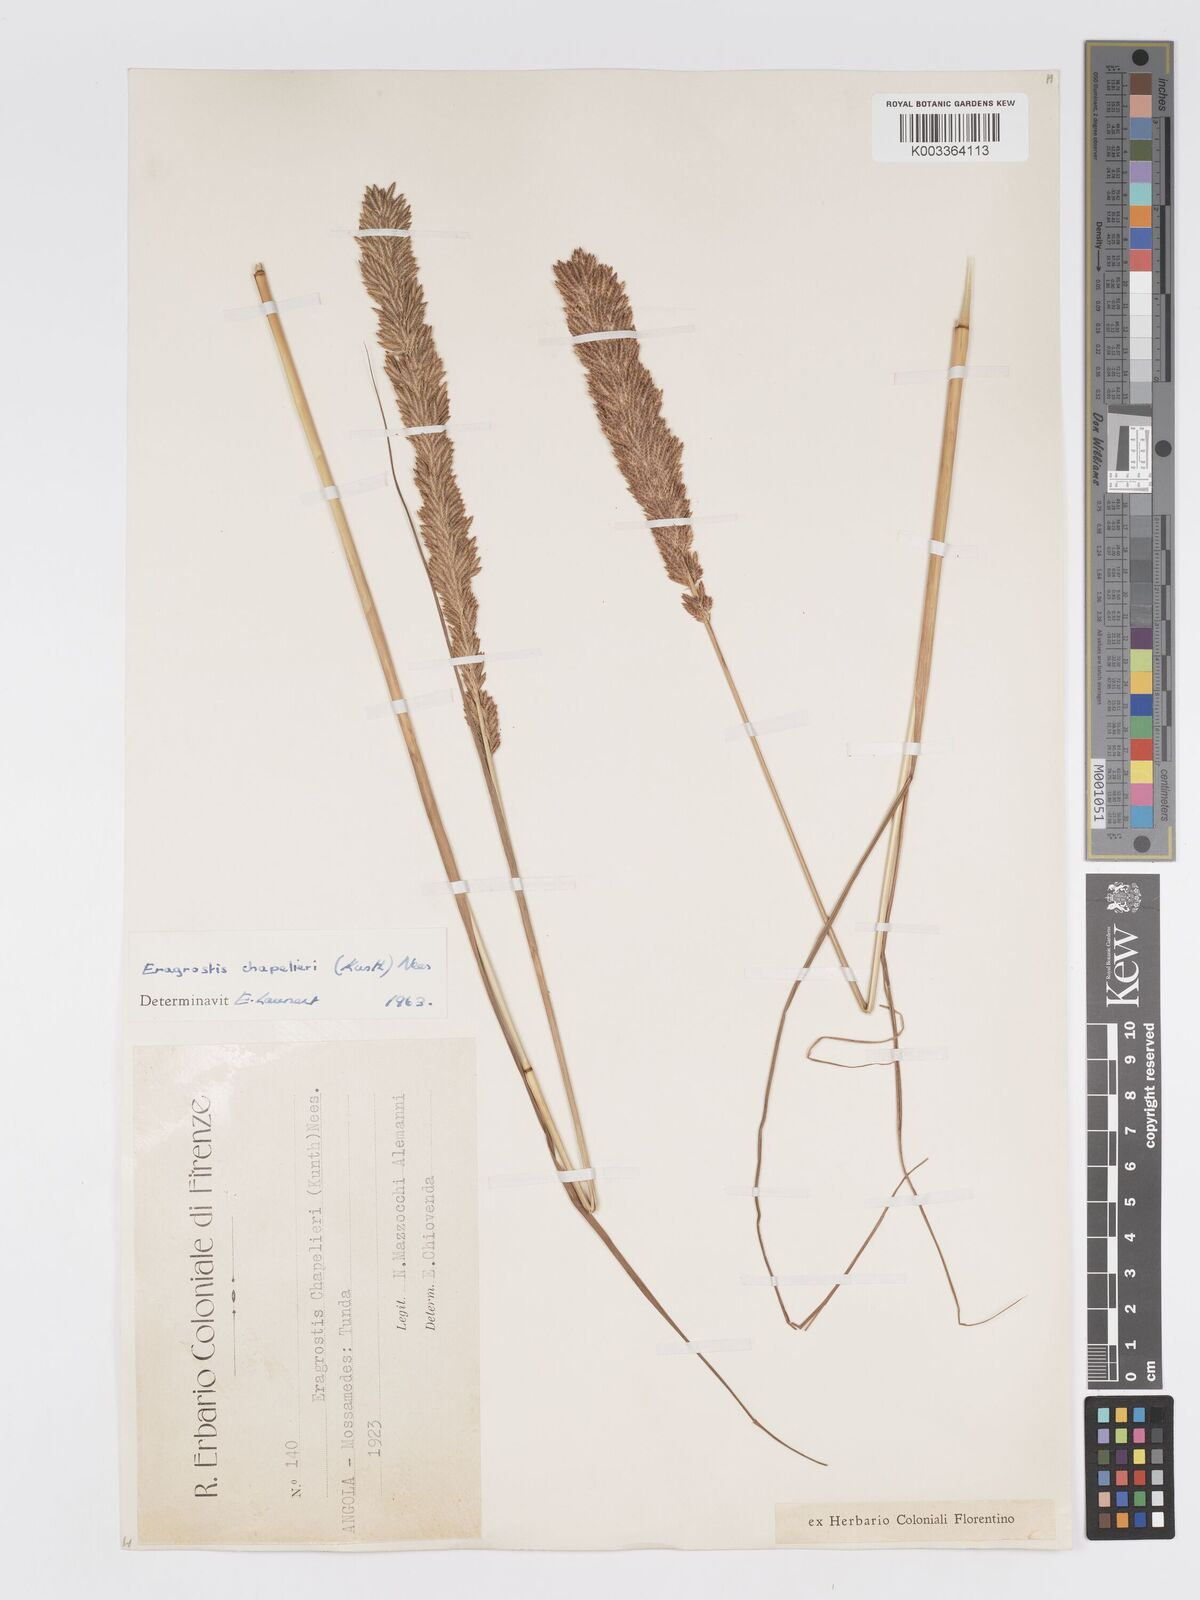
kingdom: Plantae
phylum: Tracheophyta
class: Liliopsida
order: Poales
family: Poaceae
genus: Eragrostis
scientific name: Eragrostis chapelieri
